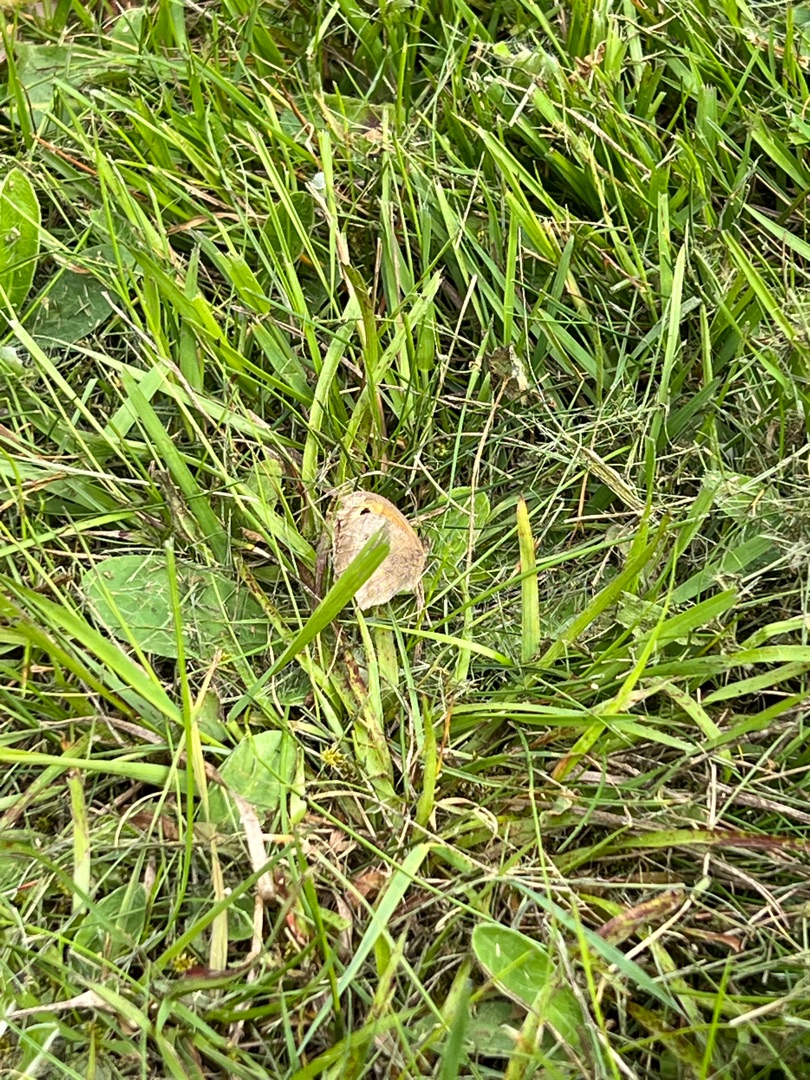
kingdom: Animalia
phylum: Arthropoda
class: Insecta
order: Lepidoptera
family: Nymphalidae
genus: Maniola
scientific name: Maniola jurtina
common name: Græsrandøje
